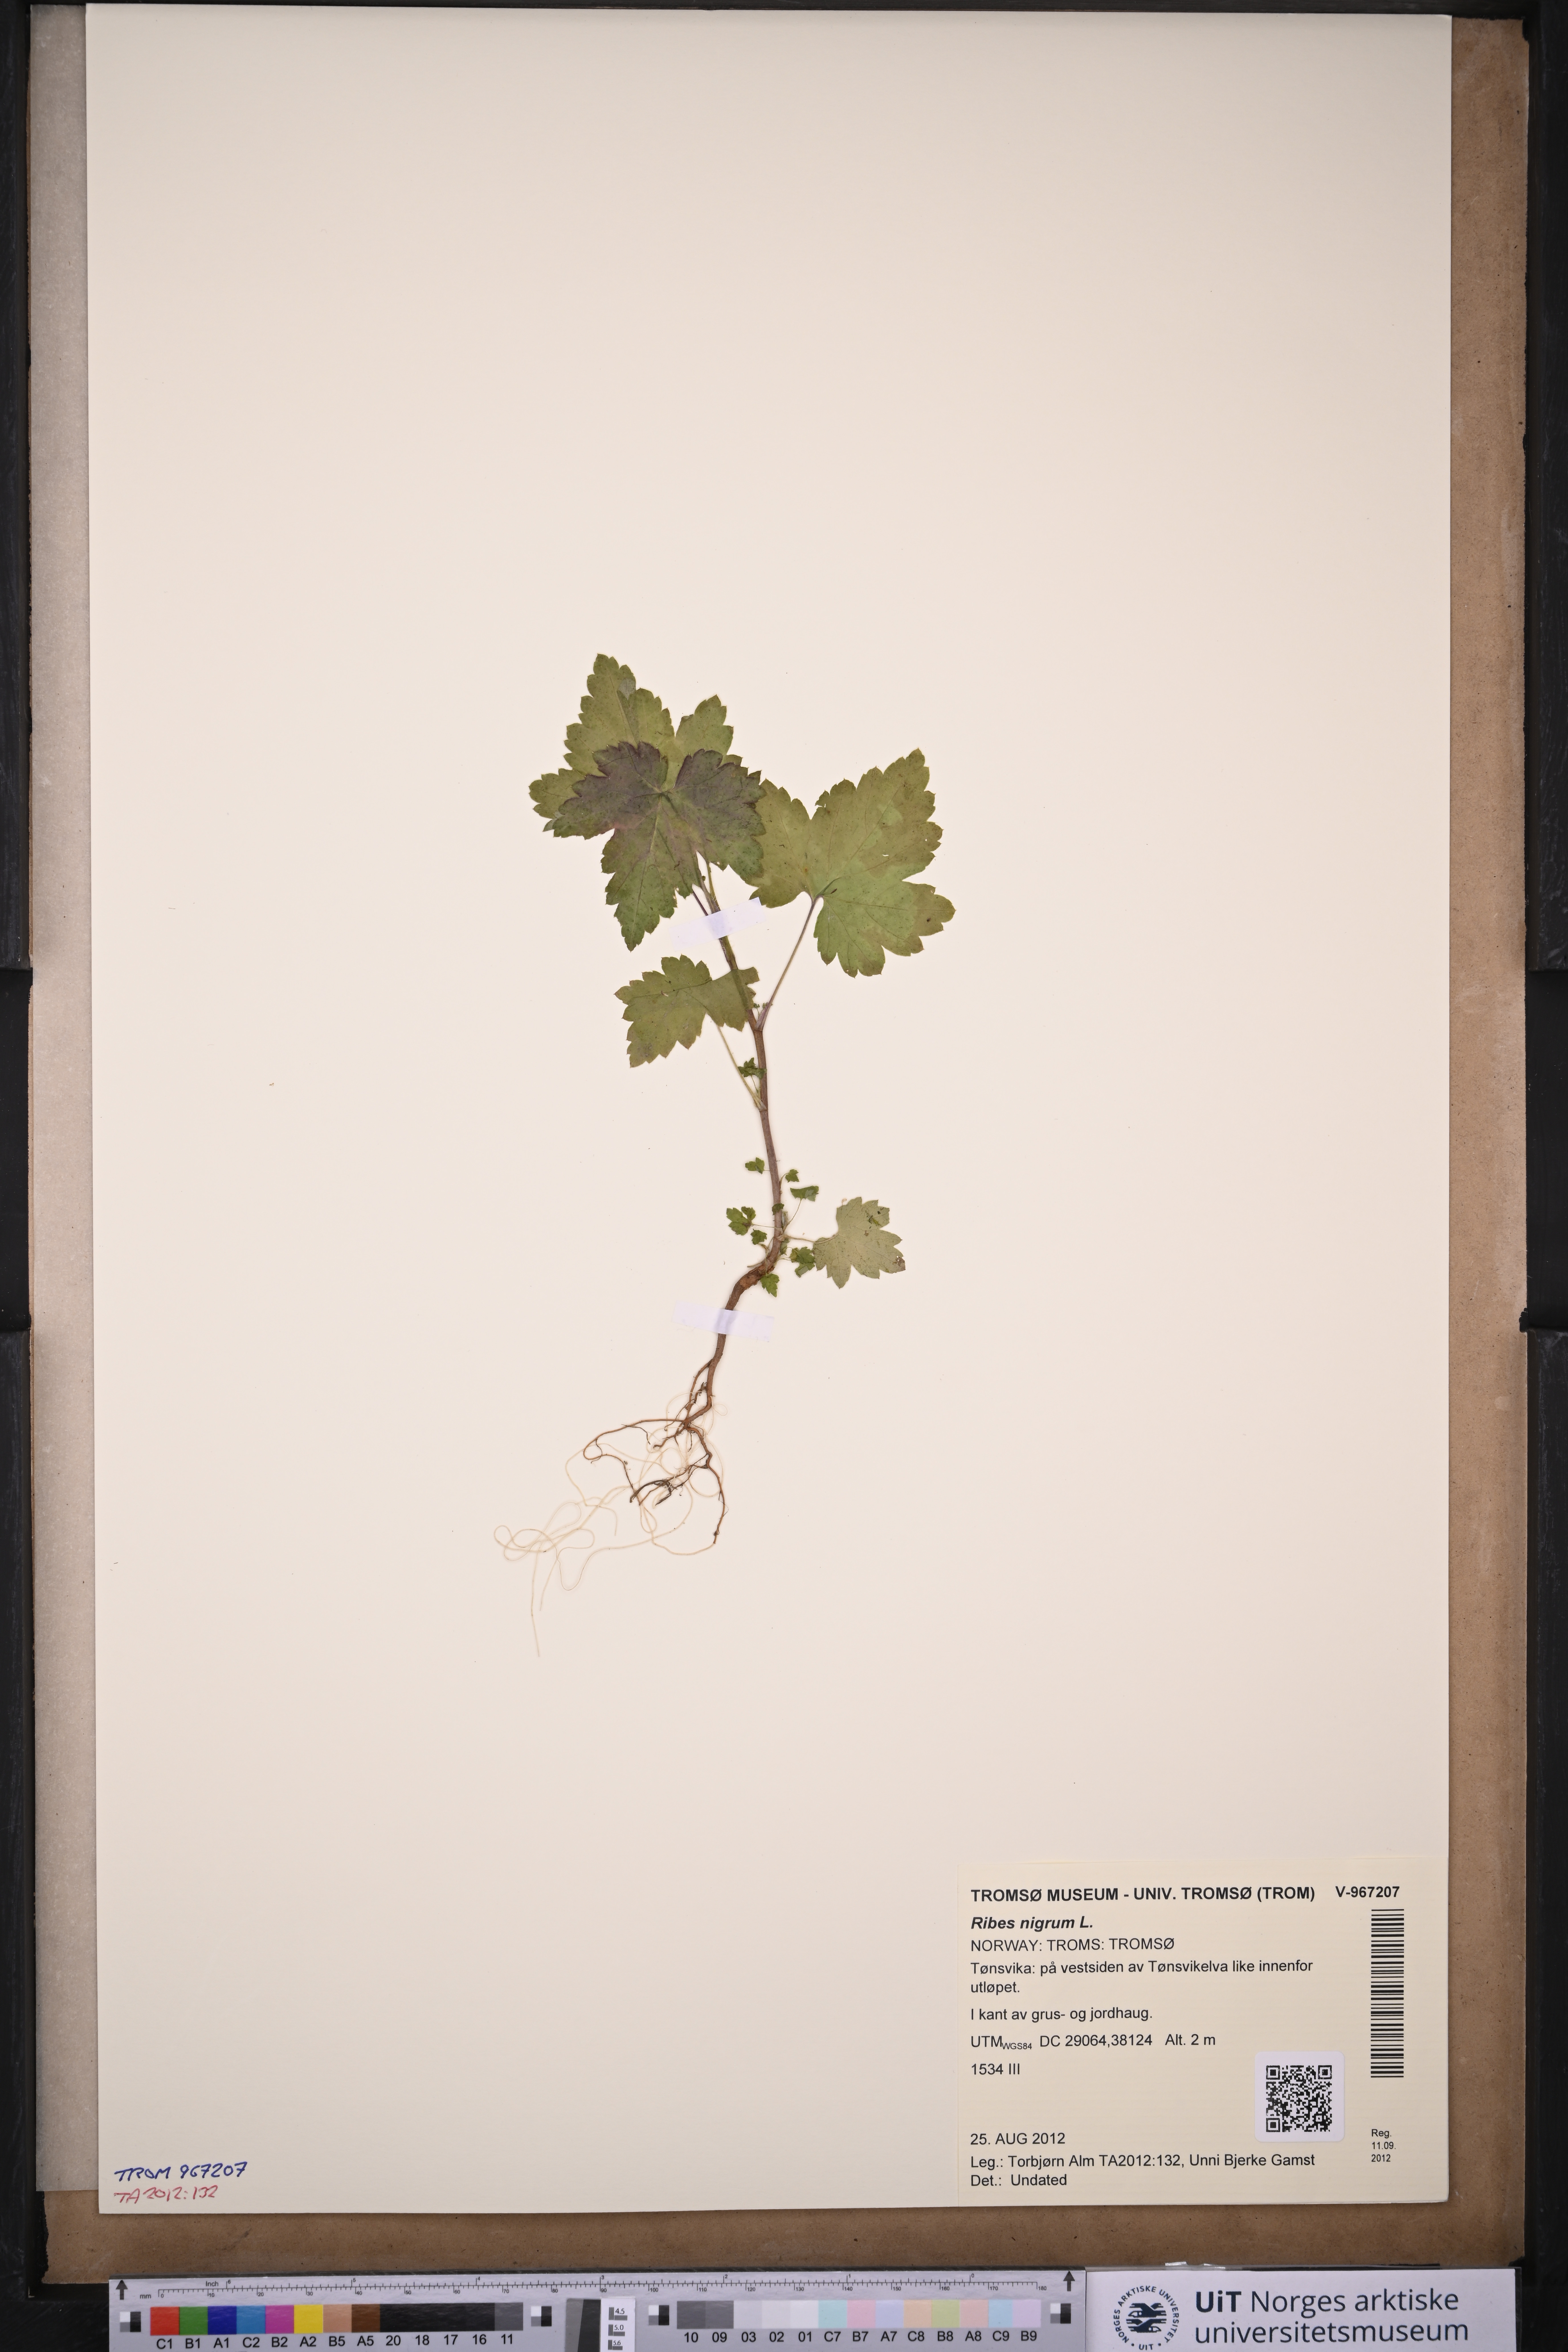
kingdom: Plantae
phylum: Tracheophyta
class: Magnoliopsida
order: Saxifragales
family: Grossulariaceae
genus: Ribes
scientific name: Ribes nigrum
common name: Black currant
